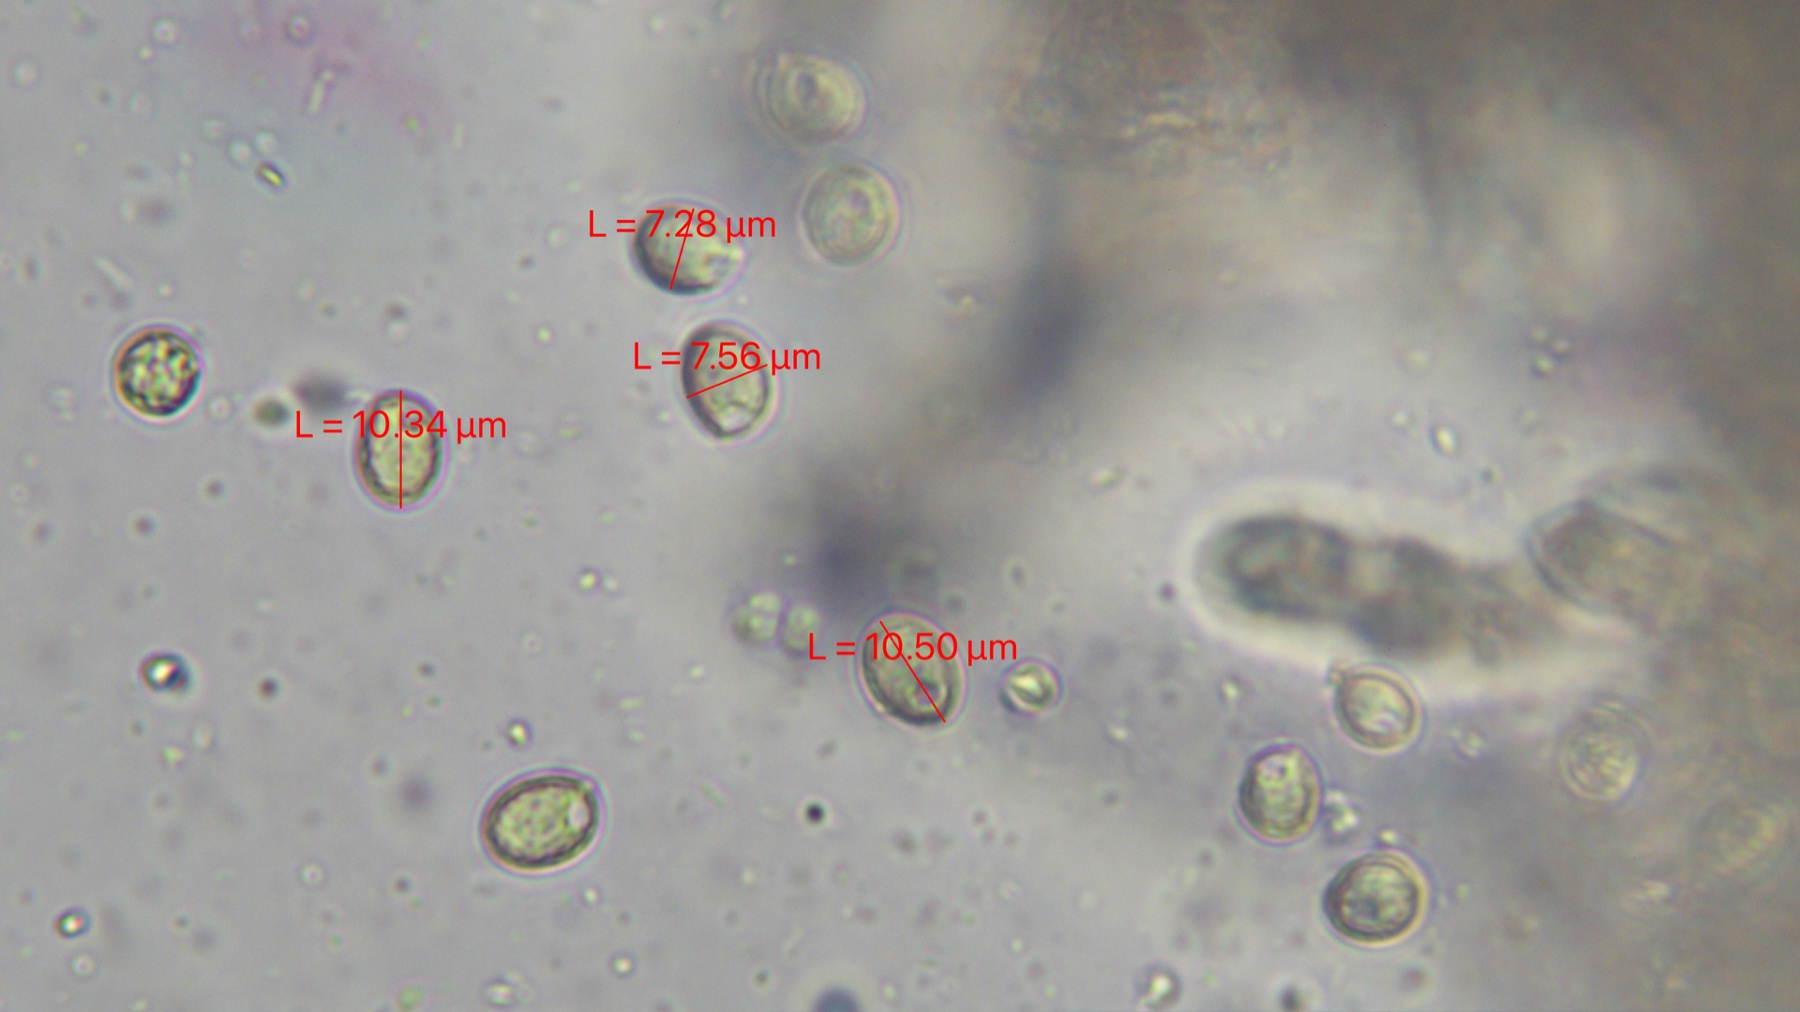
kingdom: Fungi
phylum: Basidiomycota
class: Agaricomycetes
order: Cantharellales
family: Hydnaceae
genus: Craterellus
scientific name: Craterellus undulatus
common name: liden kantarel
